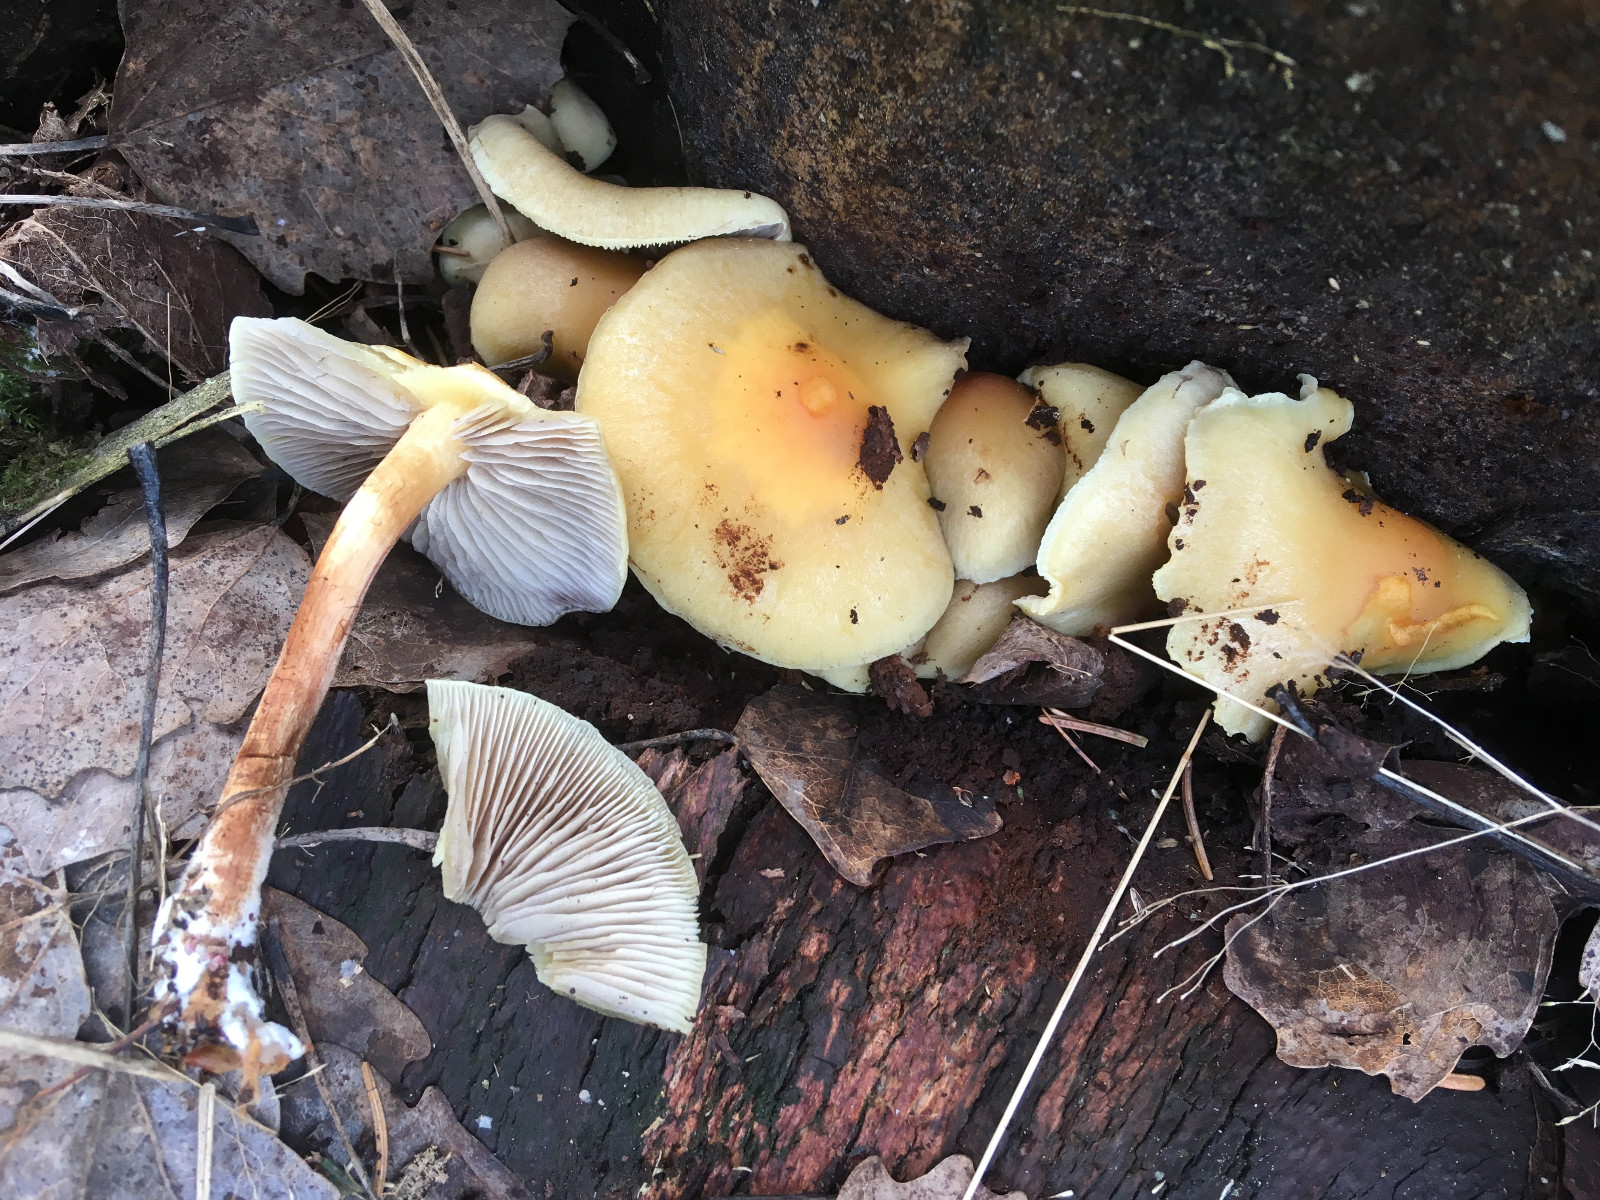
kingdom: Fungi
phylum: Basidiomycota
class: Agaricomycetes
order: Agaricales
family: Strophariaceae
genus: Hypholoma
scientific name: Hypholoma capnoides
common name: gran-svovlhat
